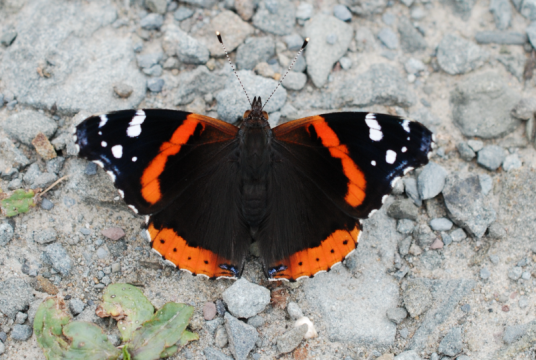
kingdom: Animalia
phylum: Arthropoda
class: Insecta
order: Lepidoptera
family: Nymphalidae
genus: Vanessa
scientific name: Vanessa atalanta
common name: Red Admiral
